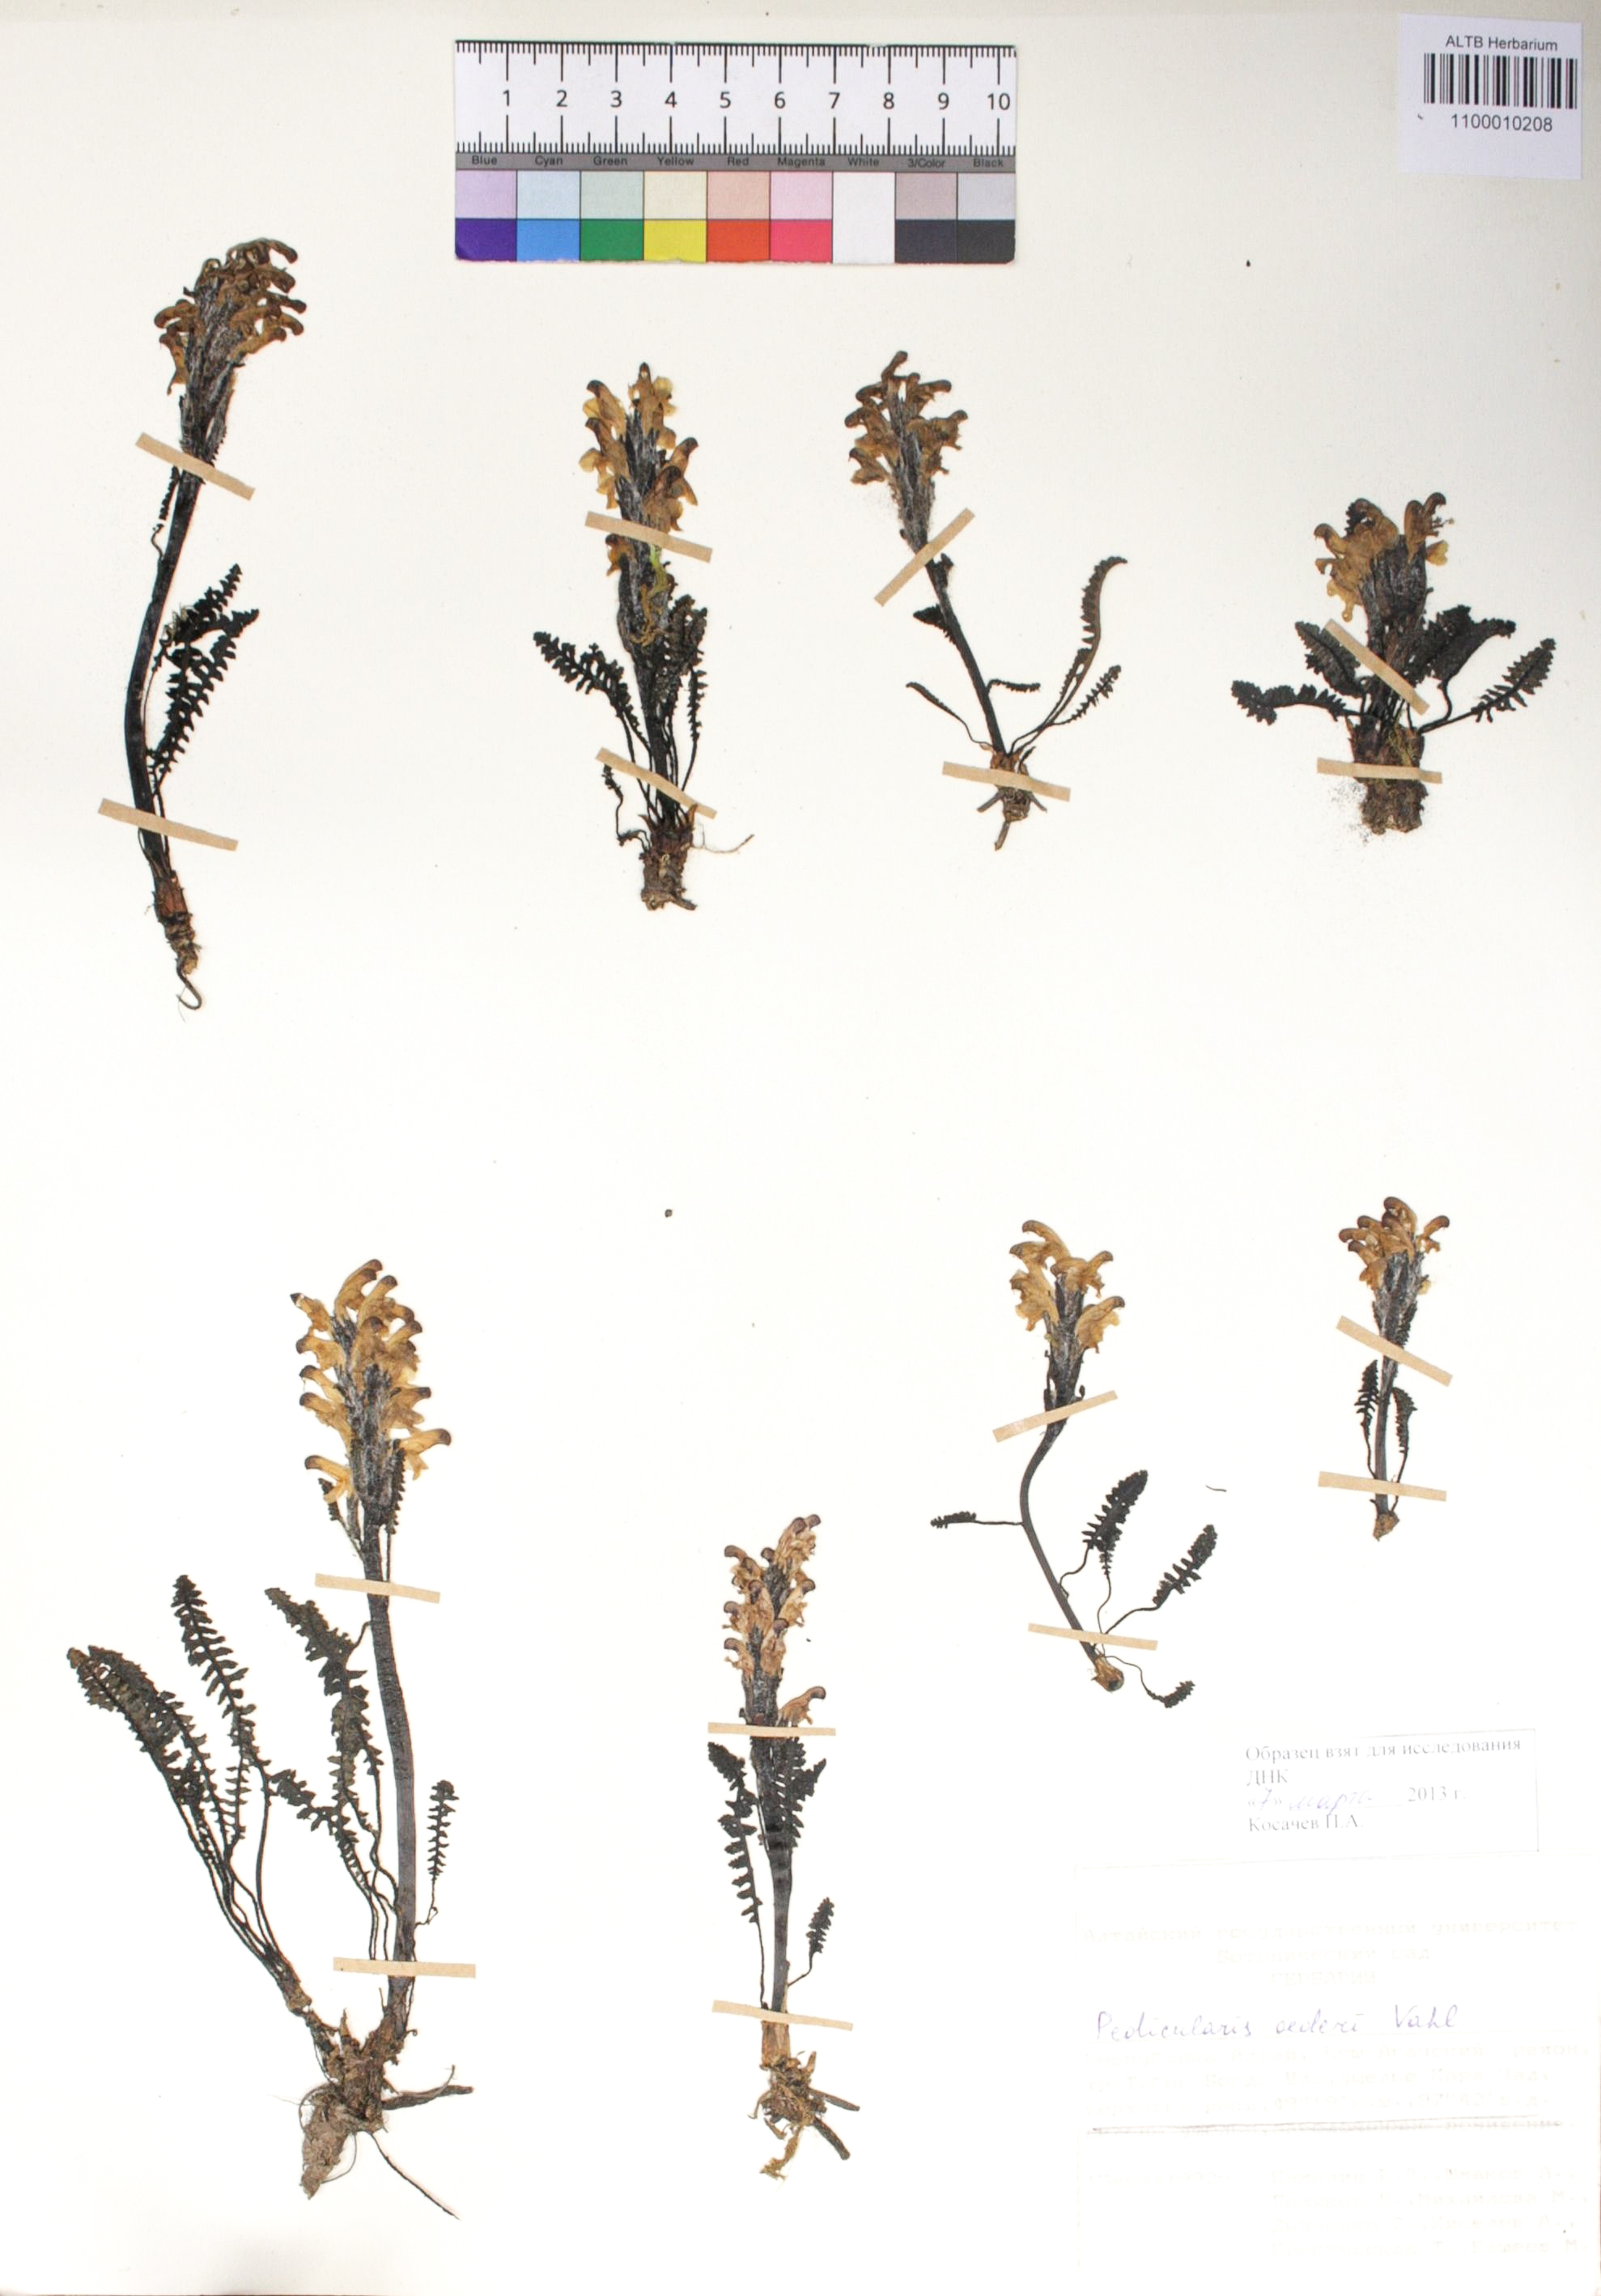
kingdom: Plantae
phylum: Tracheophyta
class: Magnoliopsida
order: Lamiales
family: Orobanchaceae
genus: Pedicularis
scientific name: Pedicularis longiflora
